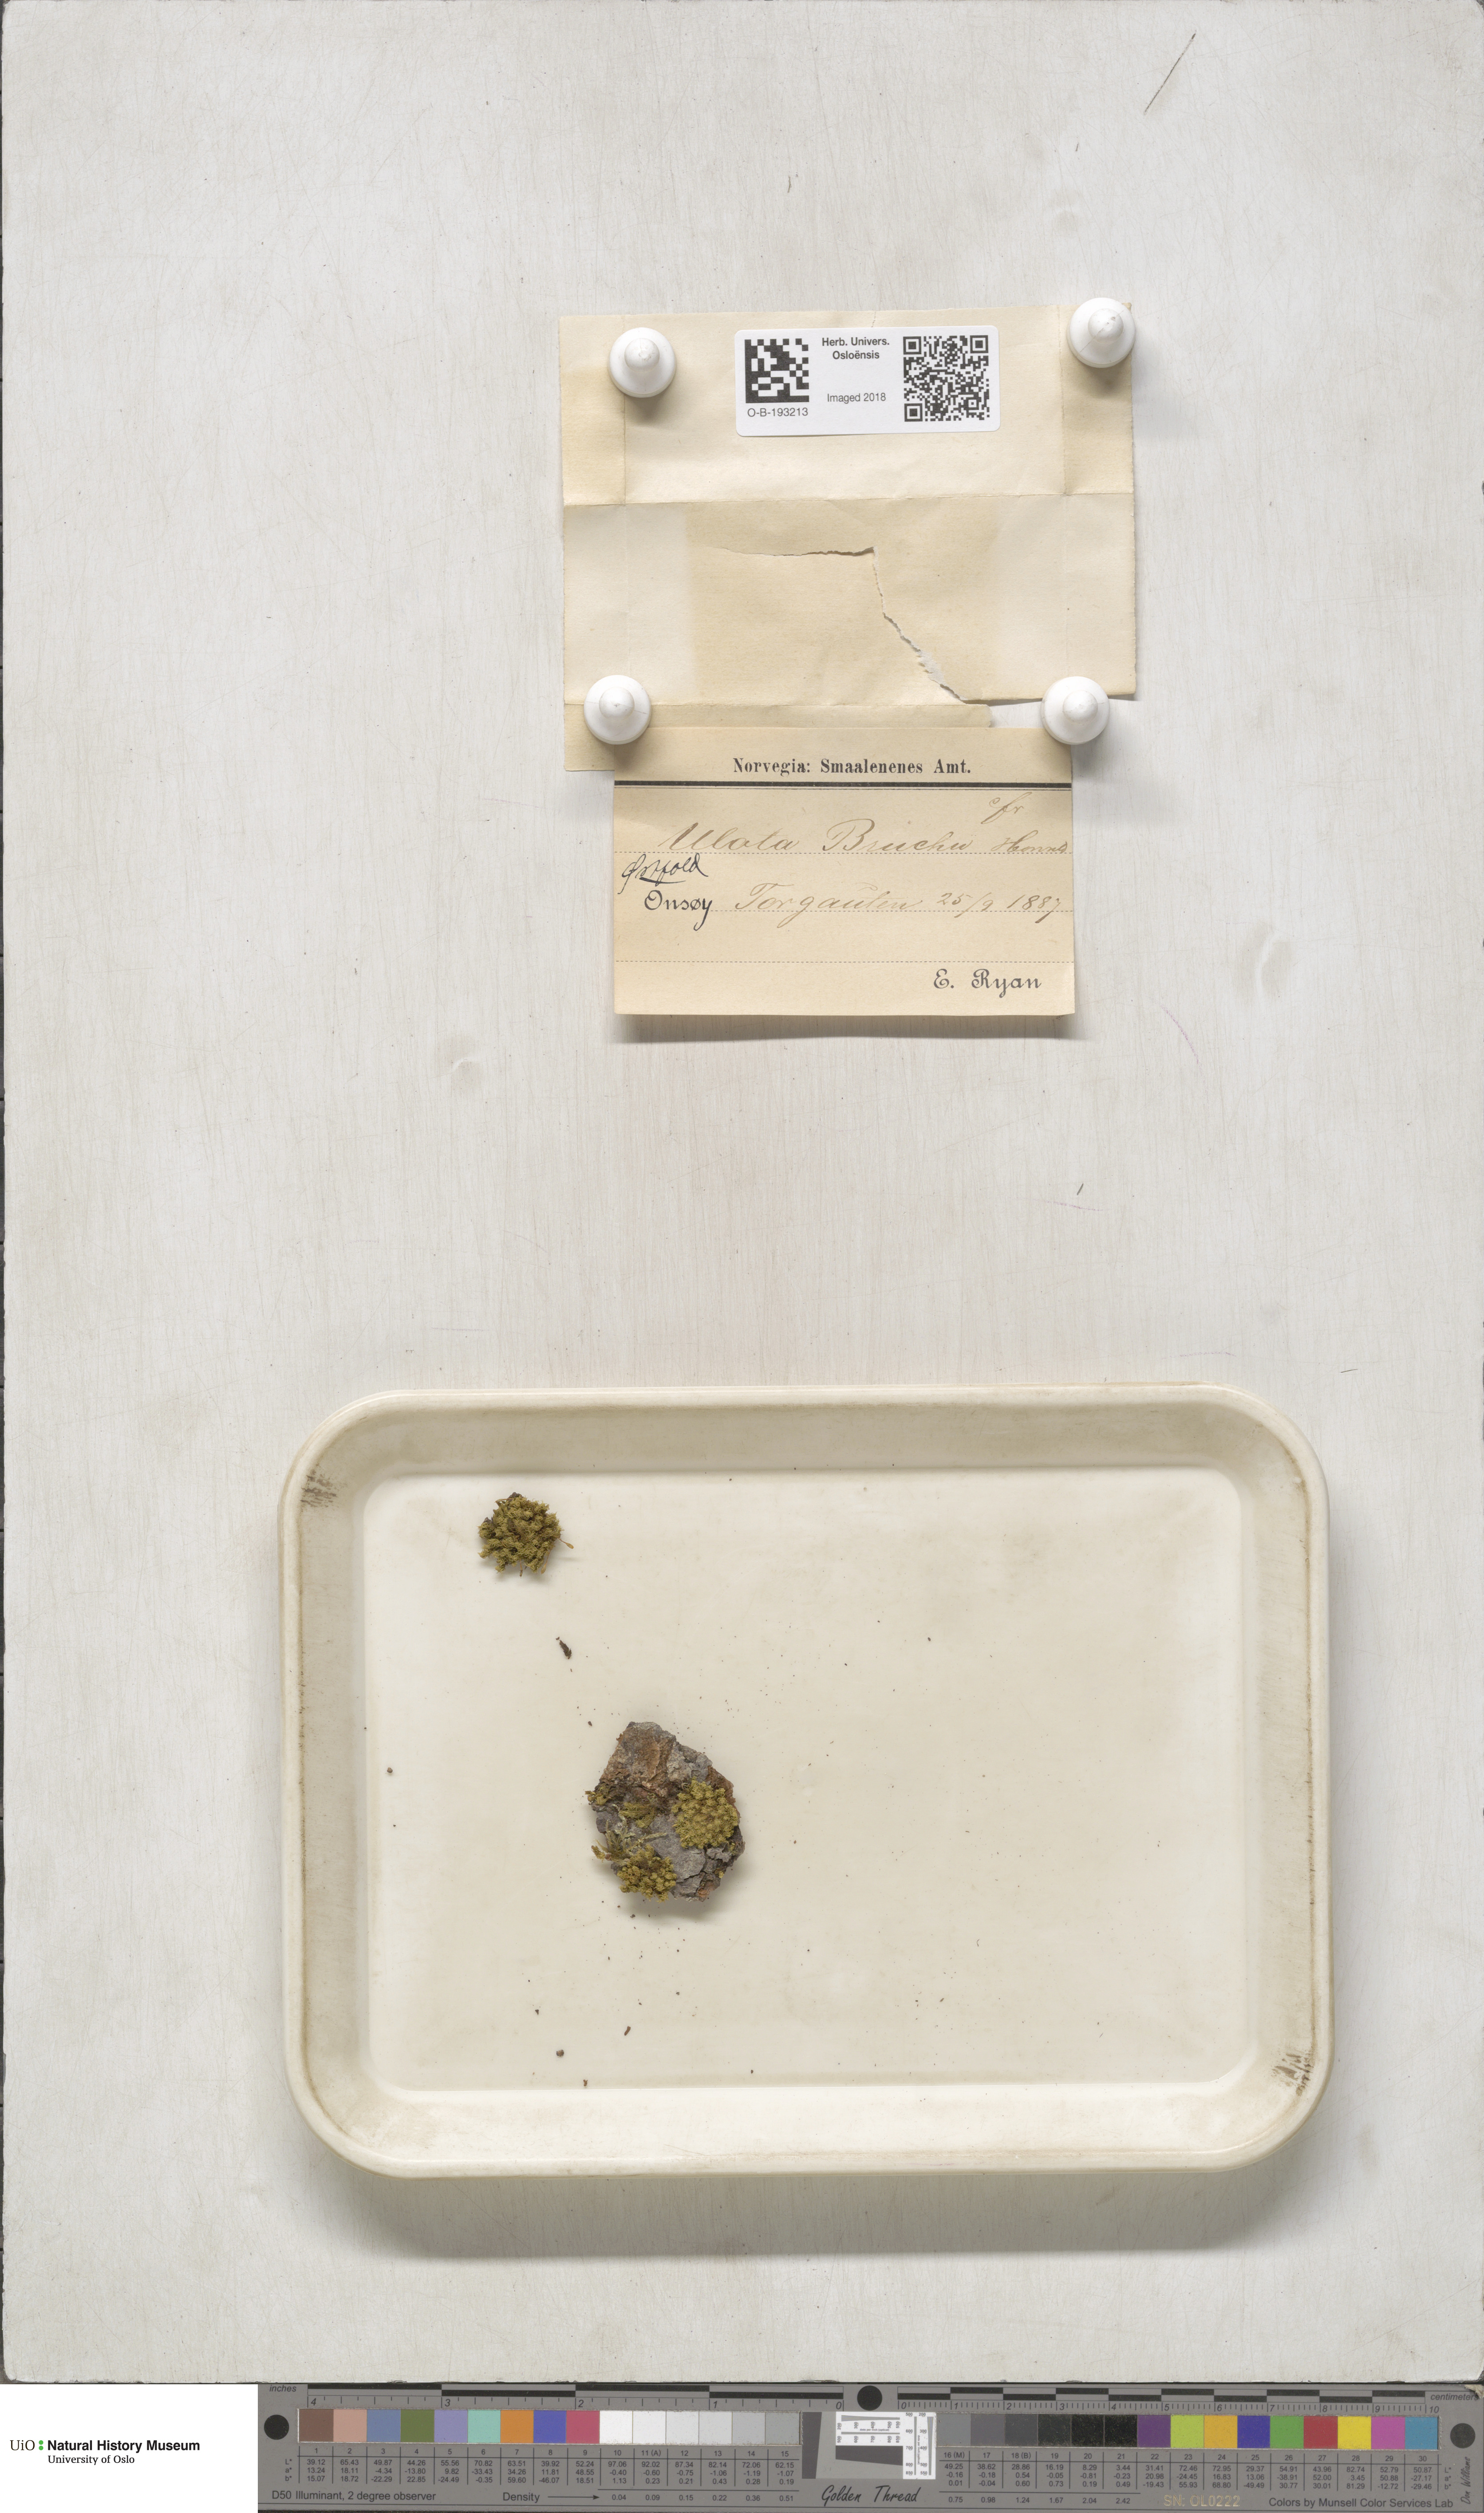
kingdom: Plantae
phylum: Bryophyta
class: Bryopsida
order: Orthotrichales
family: Orthotrichaceae
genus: Ulota
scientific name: Ulota bruchii
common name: Bruch's pincushion
